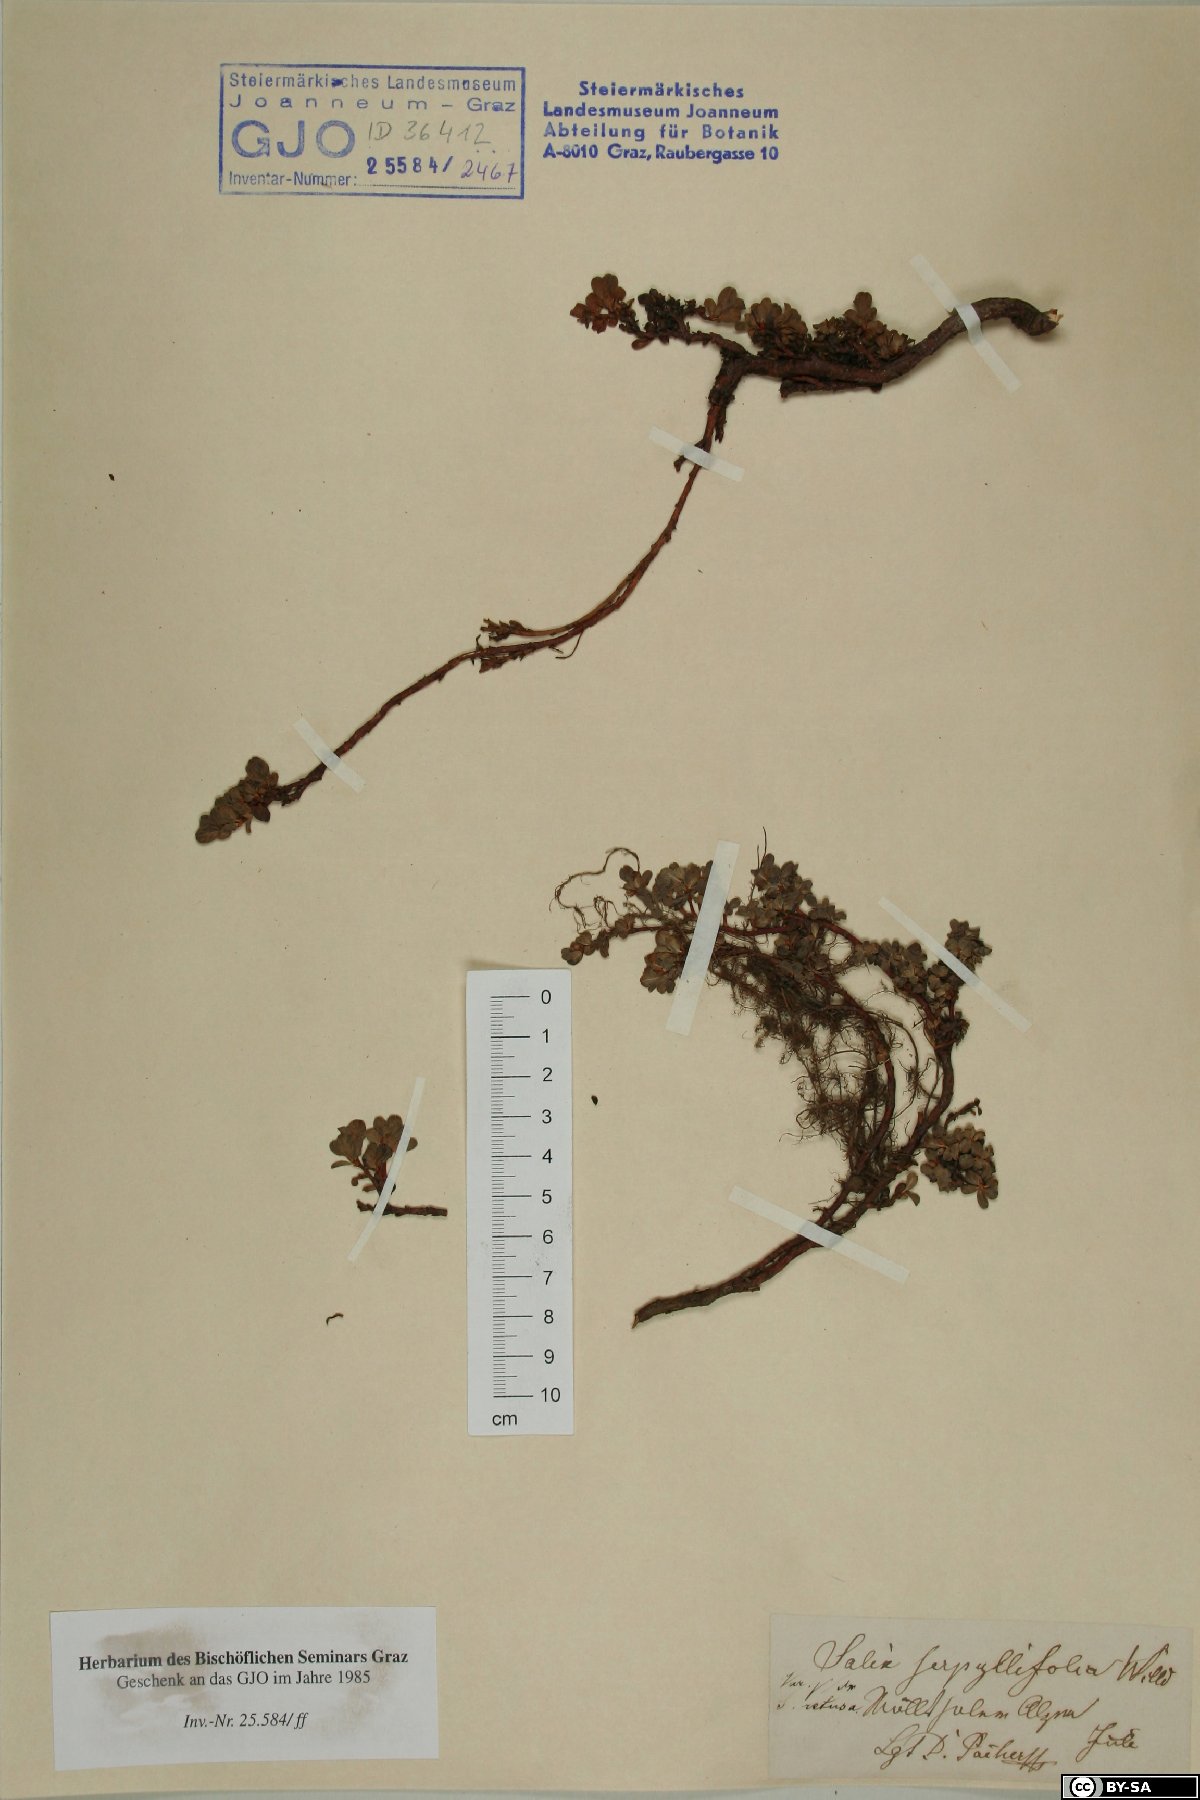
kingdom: Plantae
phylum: Tracheophyta
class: Magnoliopsida
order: Malpighiales
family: Salicaceae
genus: Salix
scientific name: Salix serpillifolia
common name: Thyme-leaf willow
